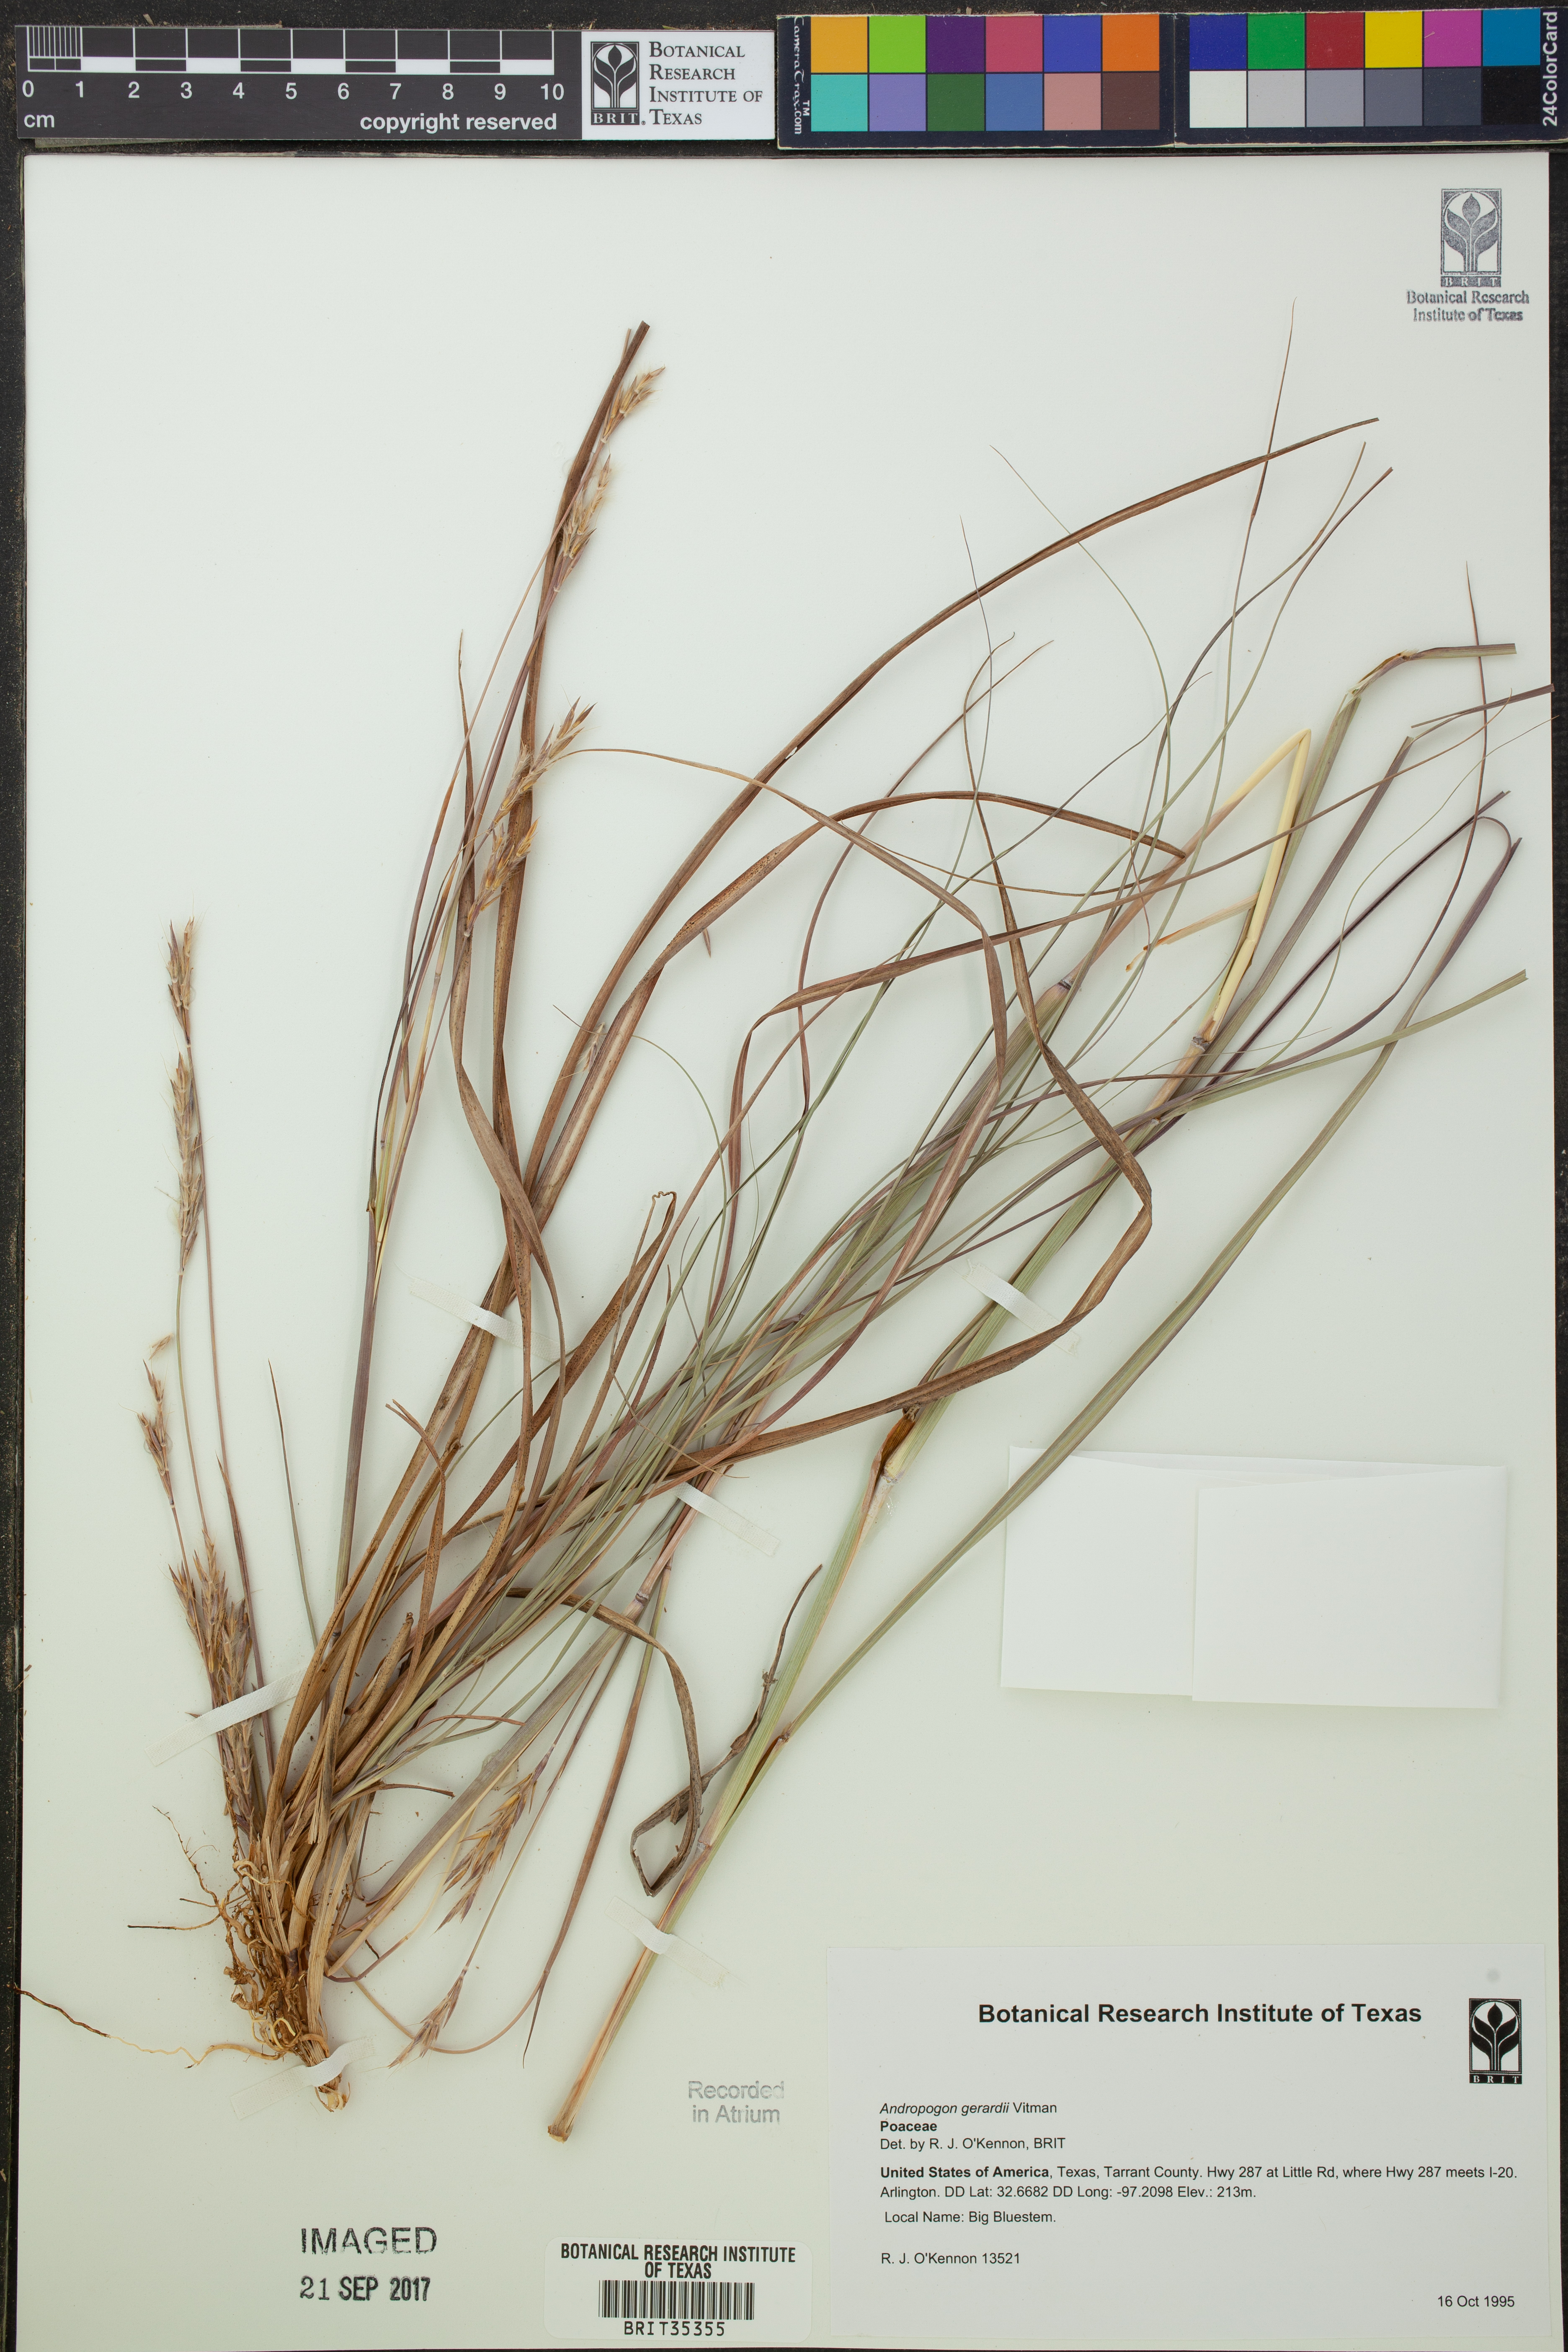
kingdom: Plantae
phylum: Tracheophyta
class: Liliopsida
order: Poales
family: Poaceae
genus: Andropogon
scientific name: Andropogon gerardi
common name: Big bluestem
